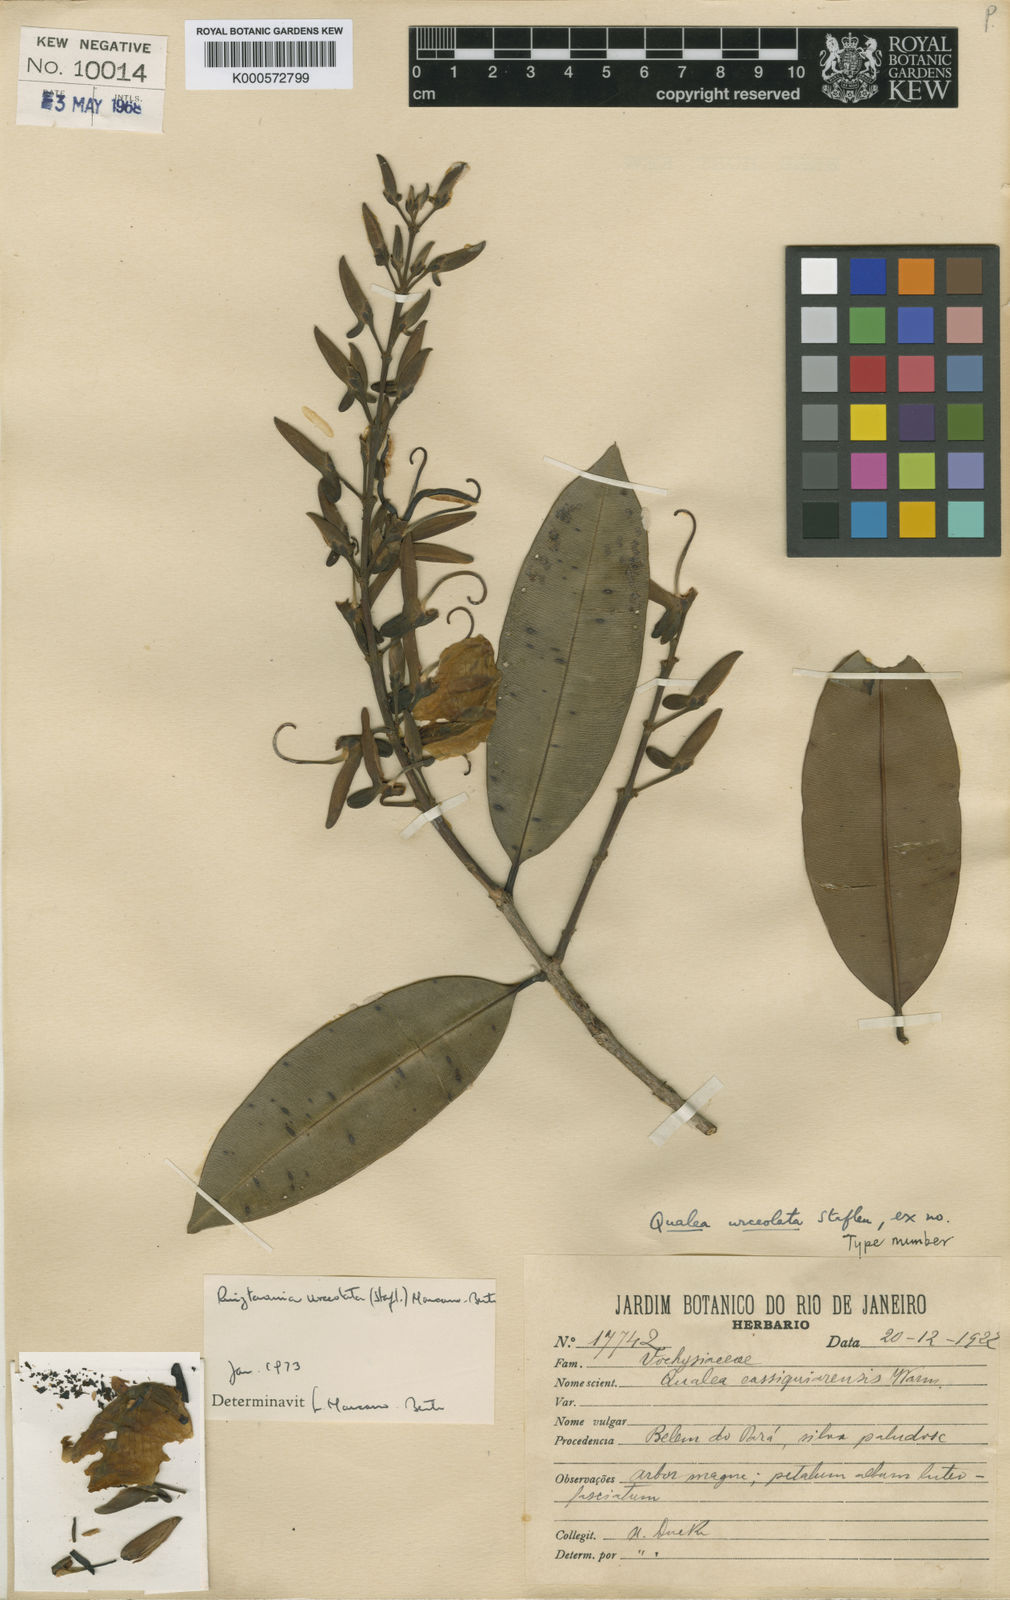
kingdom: Plantae
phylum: Tracheophyta
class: Magnoliopsida
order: Myrtales
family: Vochysiaceae
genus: Ruizterania
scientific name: Ruizterania urceolata
